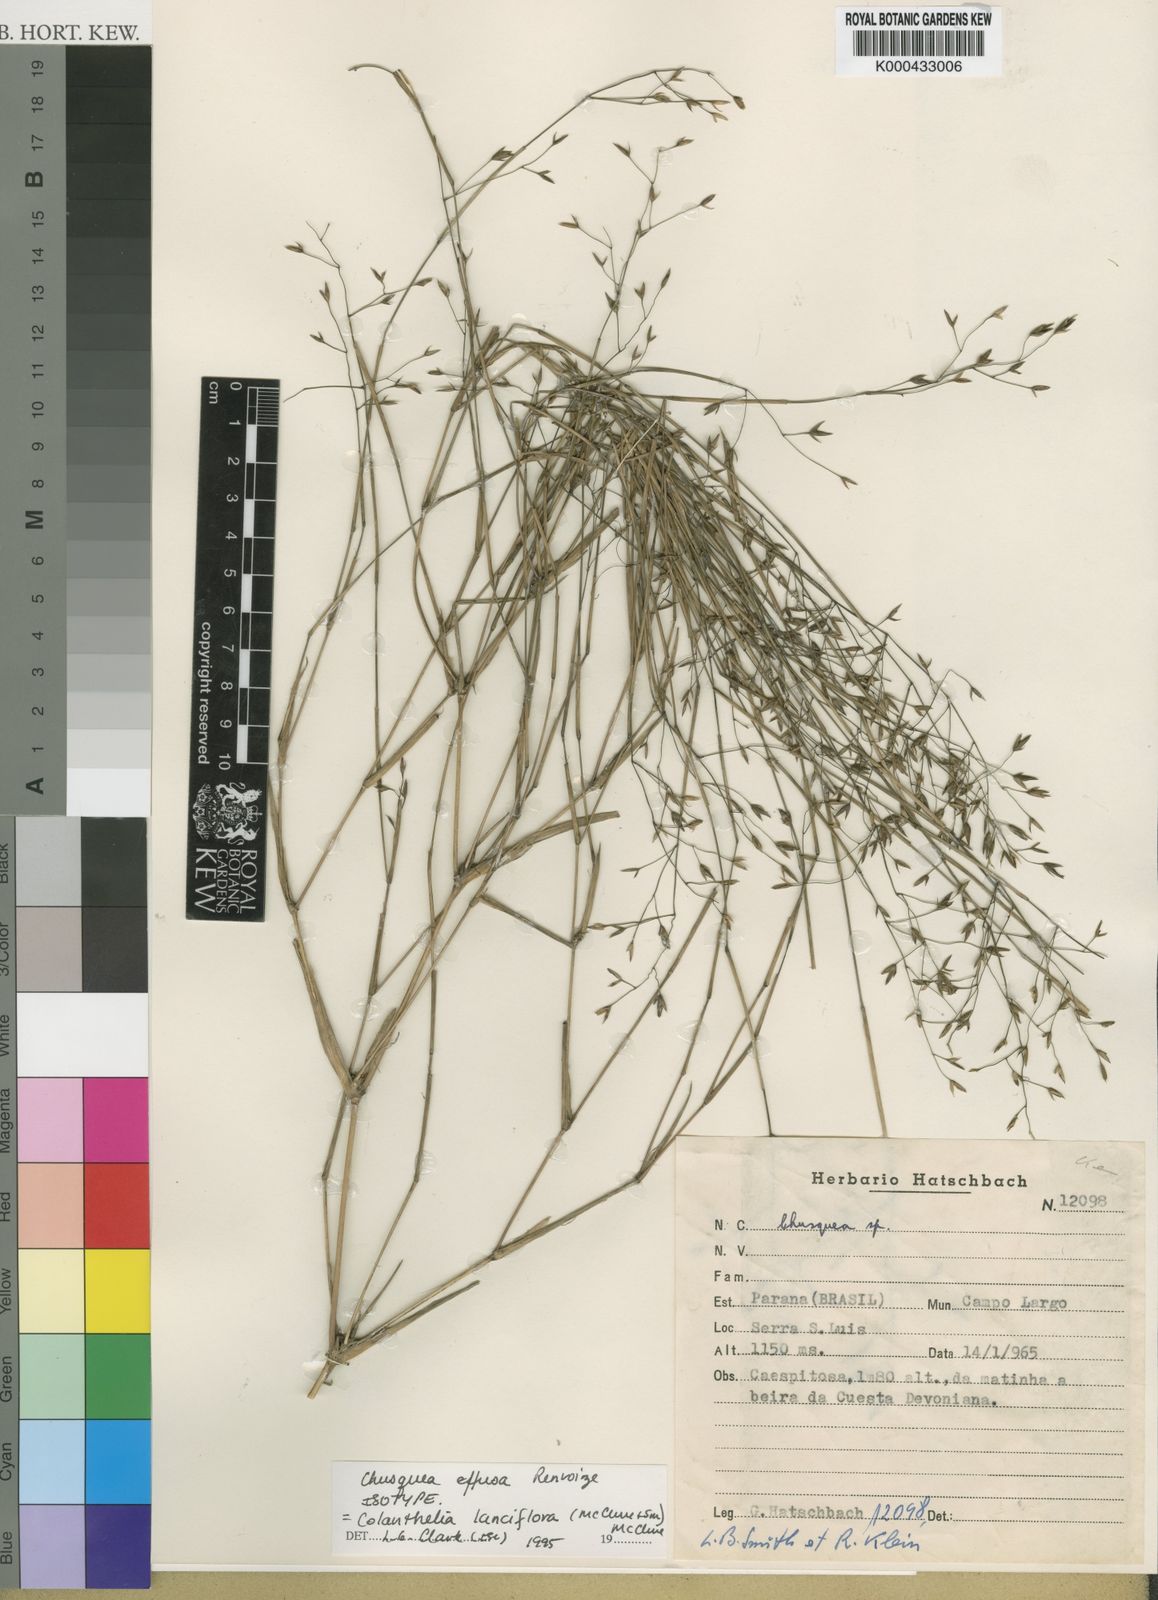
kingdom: Plantae
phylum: Tracheophyta
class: Liliopsida
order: Poales
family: Poaceae
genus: Colanthelia
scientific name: Colanthelia lanciflora
